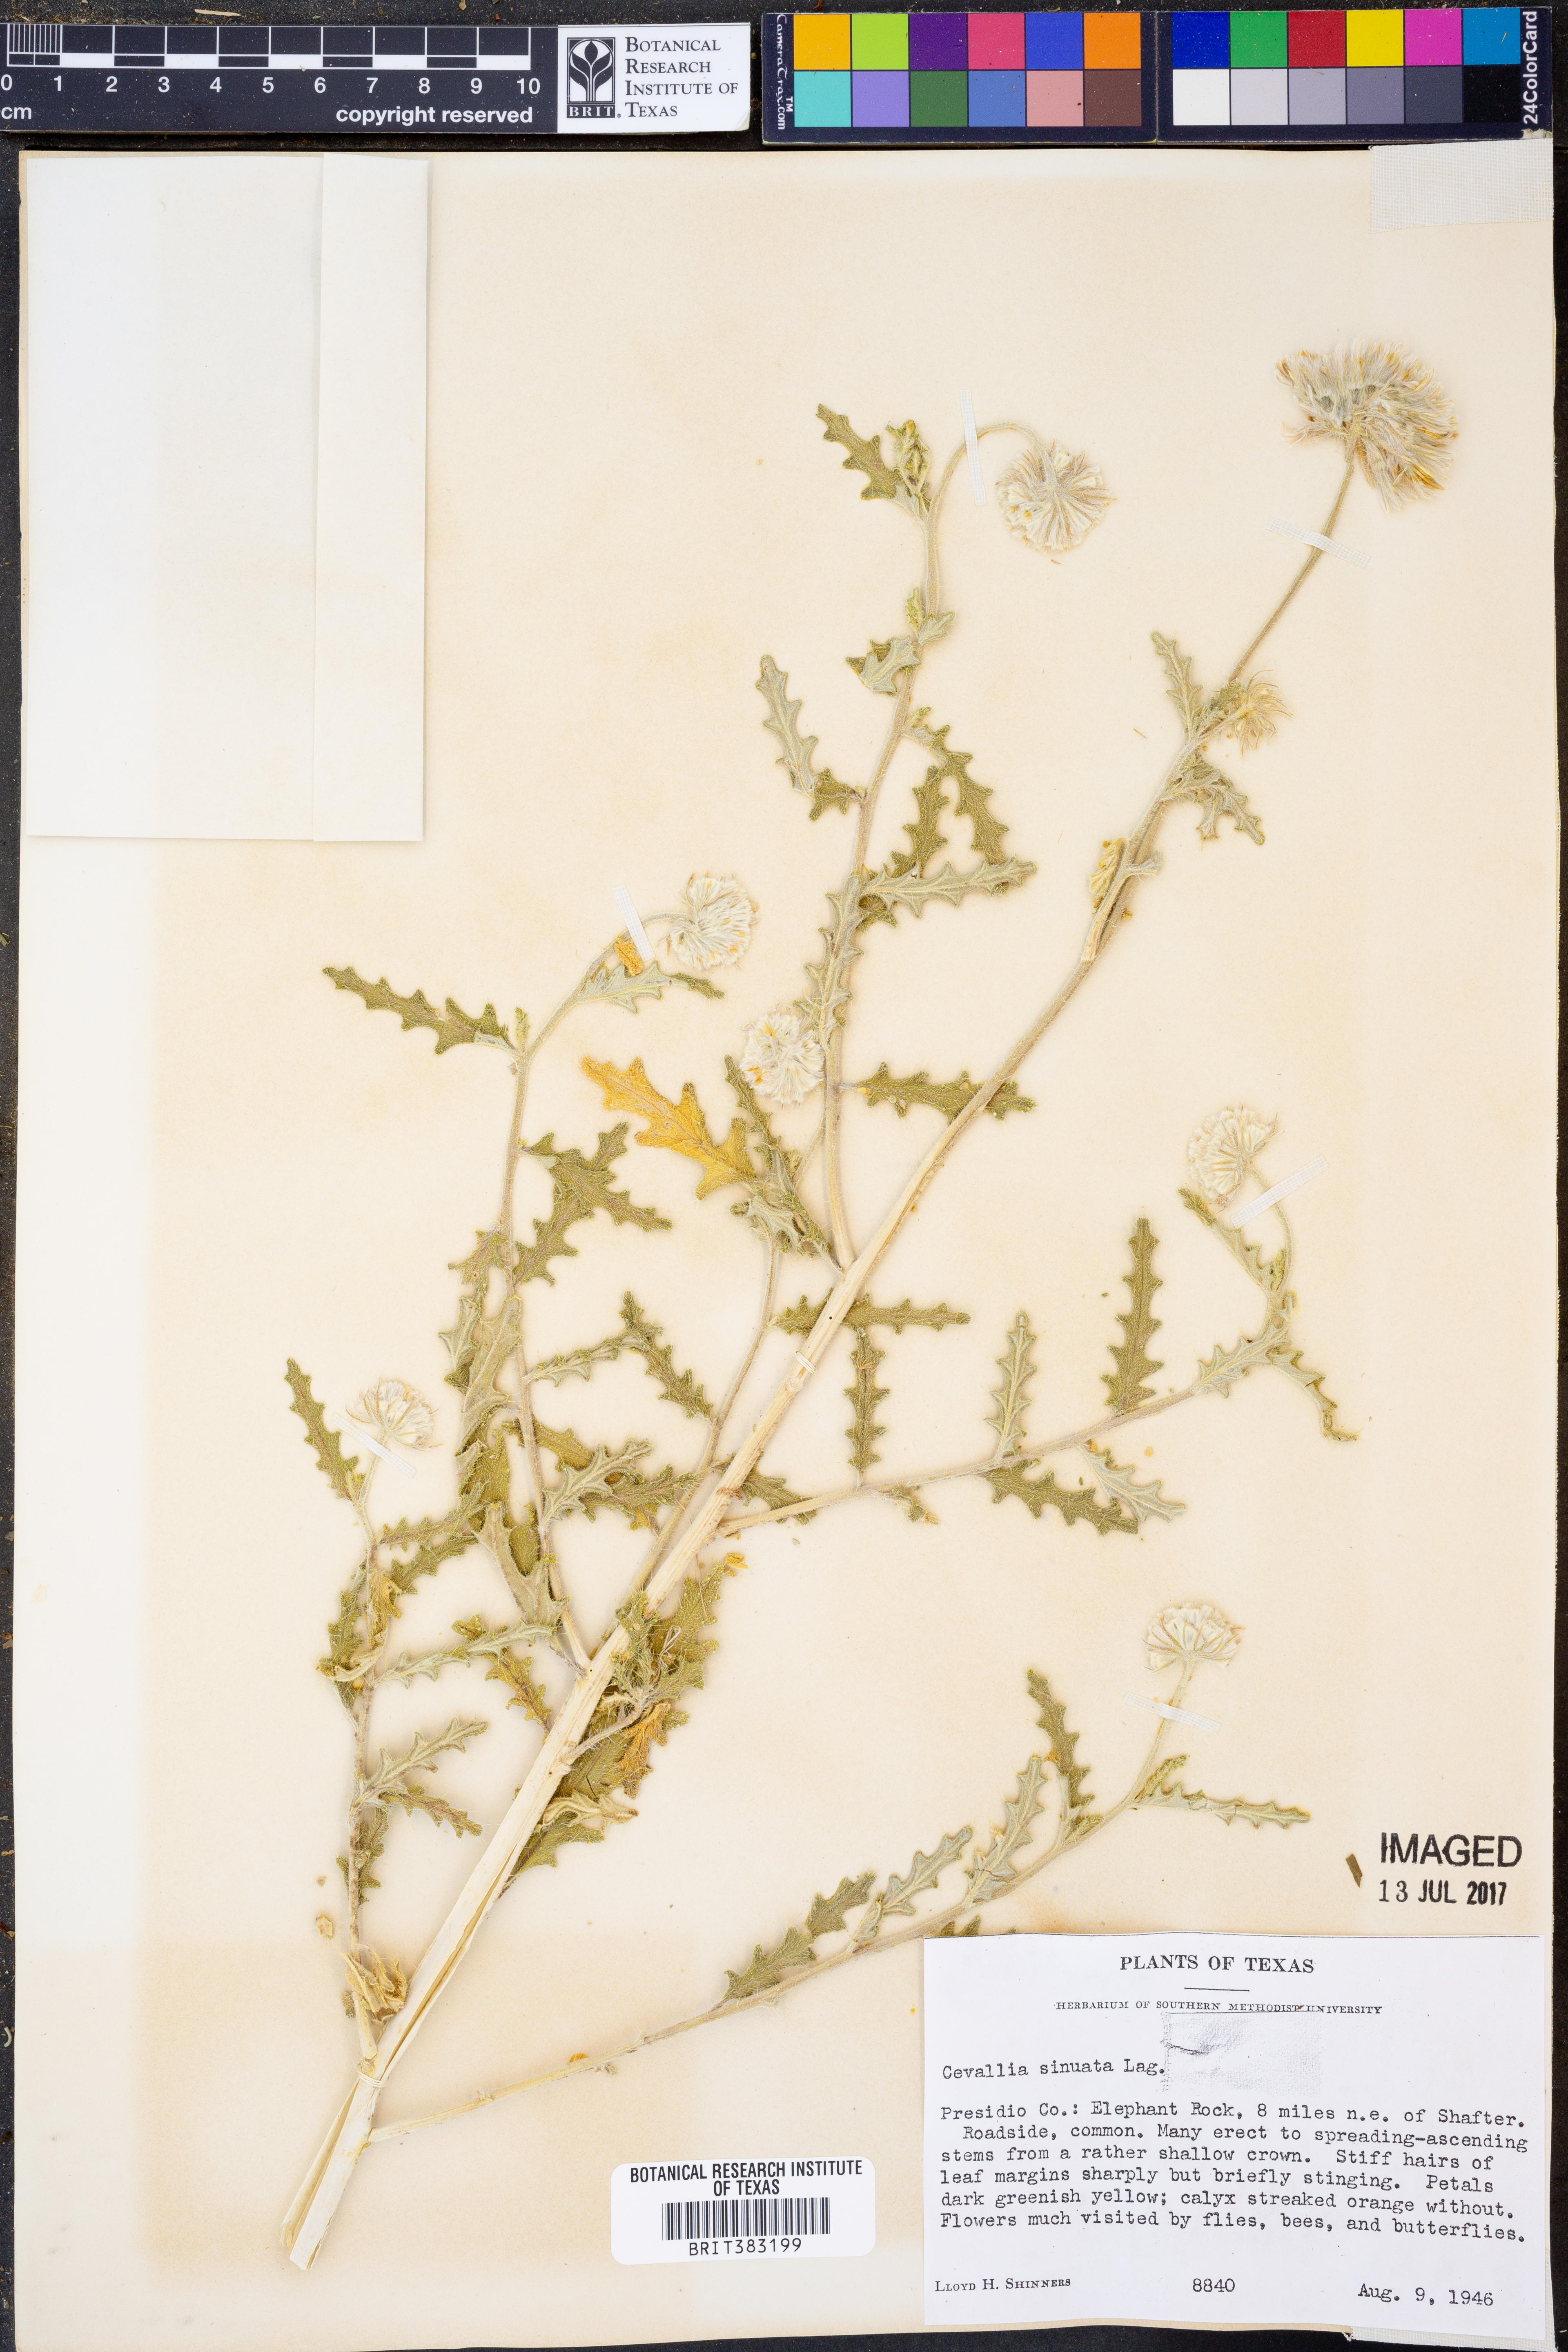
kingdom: Plantae
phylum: Tracheophyta
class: Magnoliopsida
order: Cornales
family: Loasaceae
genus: Cevallia
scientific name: Cevallia sinuata
